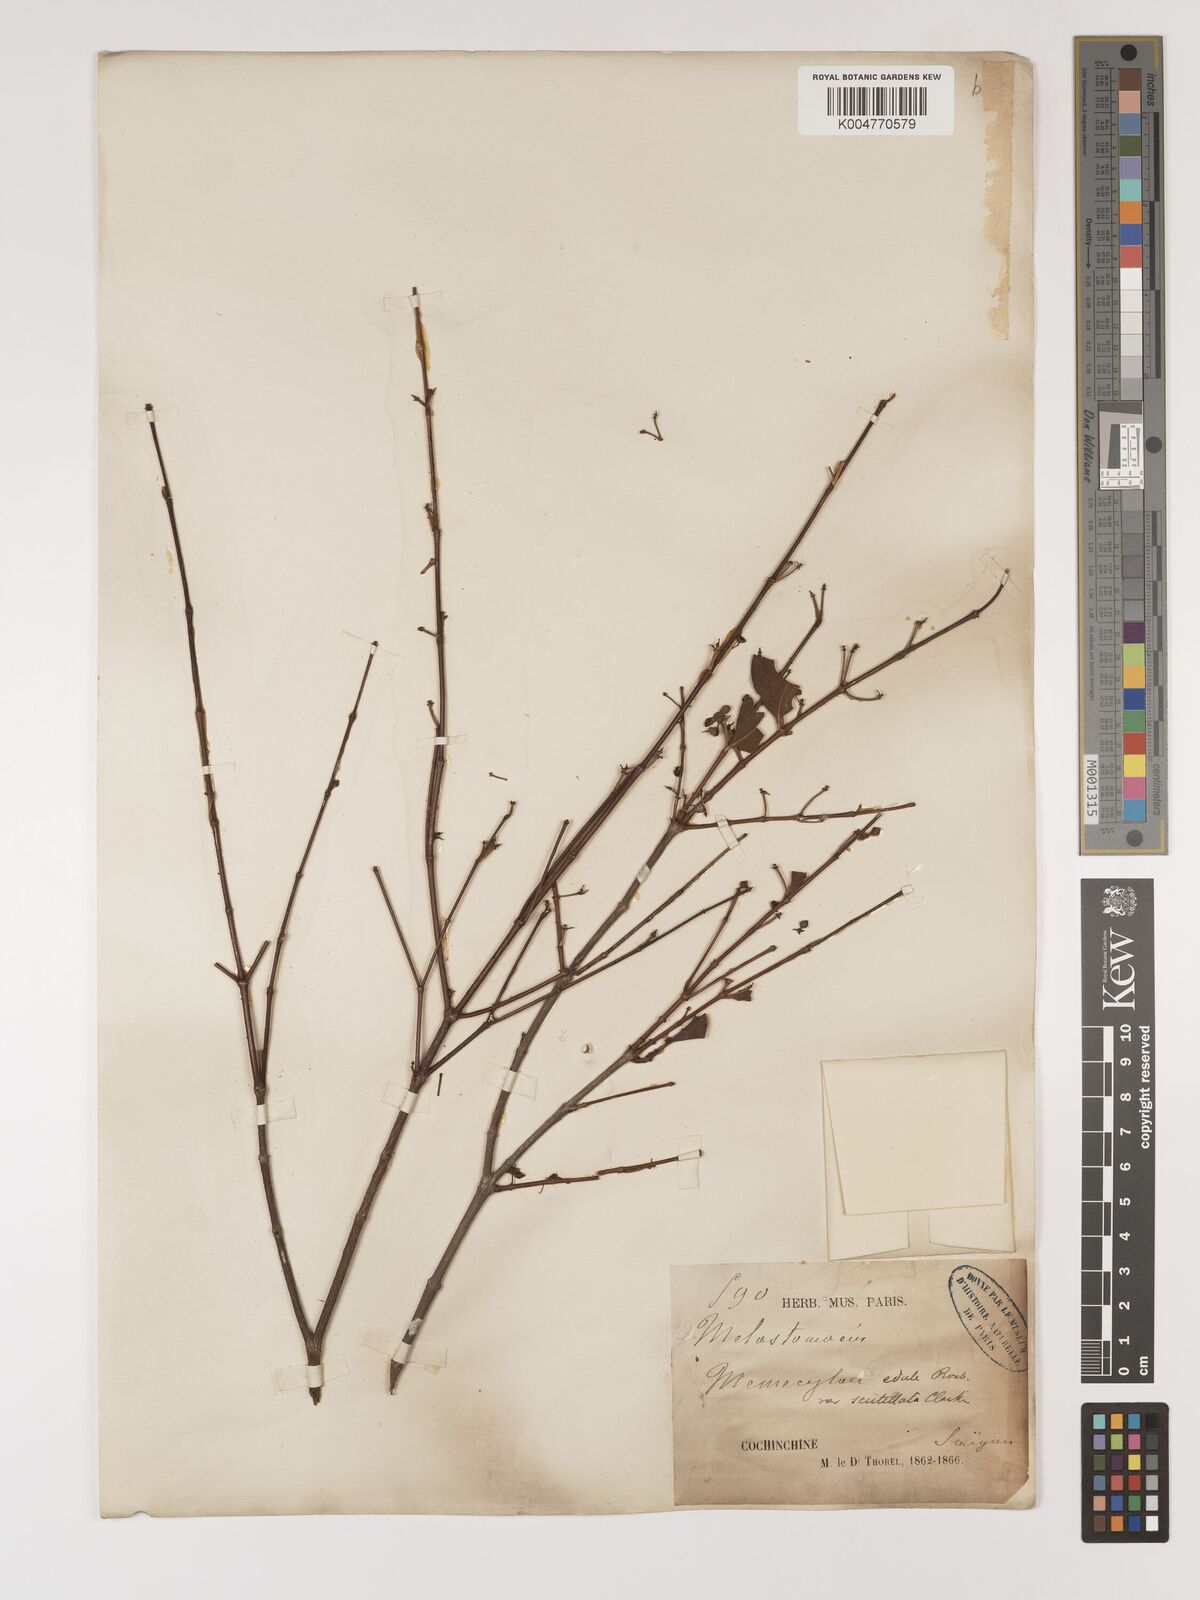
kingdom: Plantae
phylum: Tracheophyta
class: Magnoliopsida
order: Myrtales
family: Melastomataceae
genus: Memecylon
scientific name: Memecylon scutellatum
